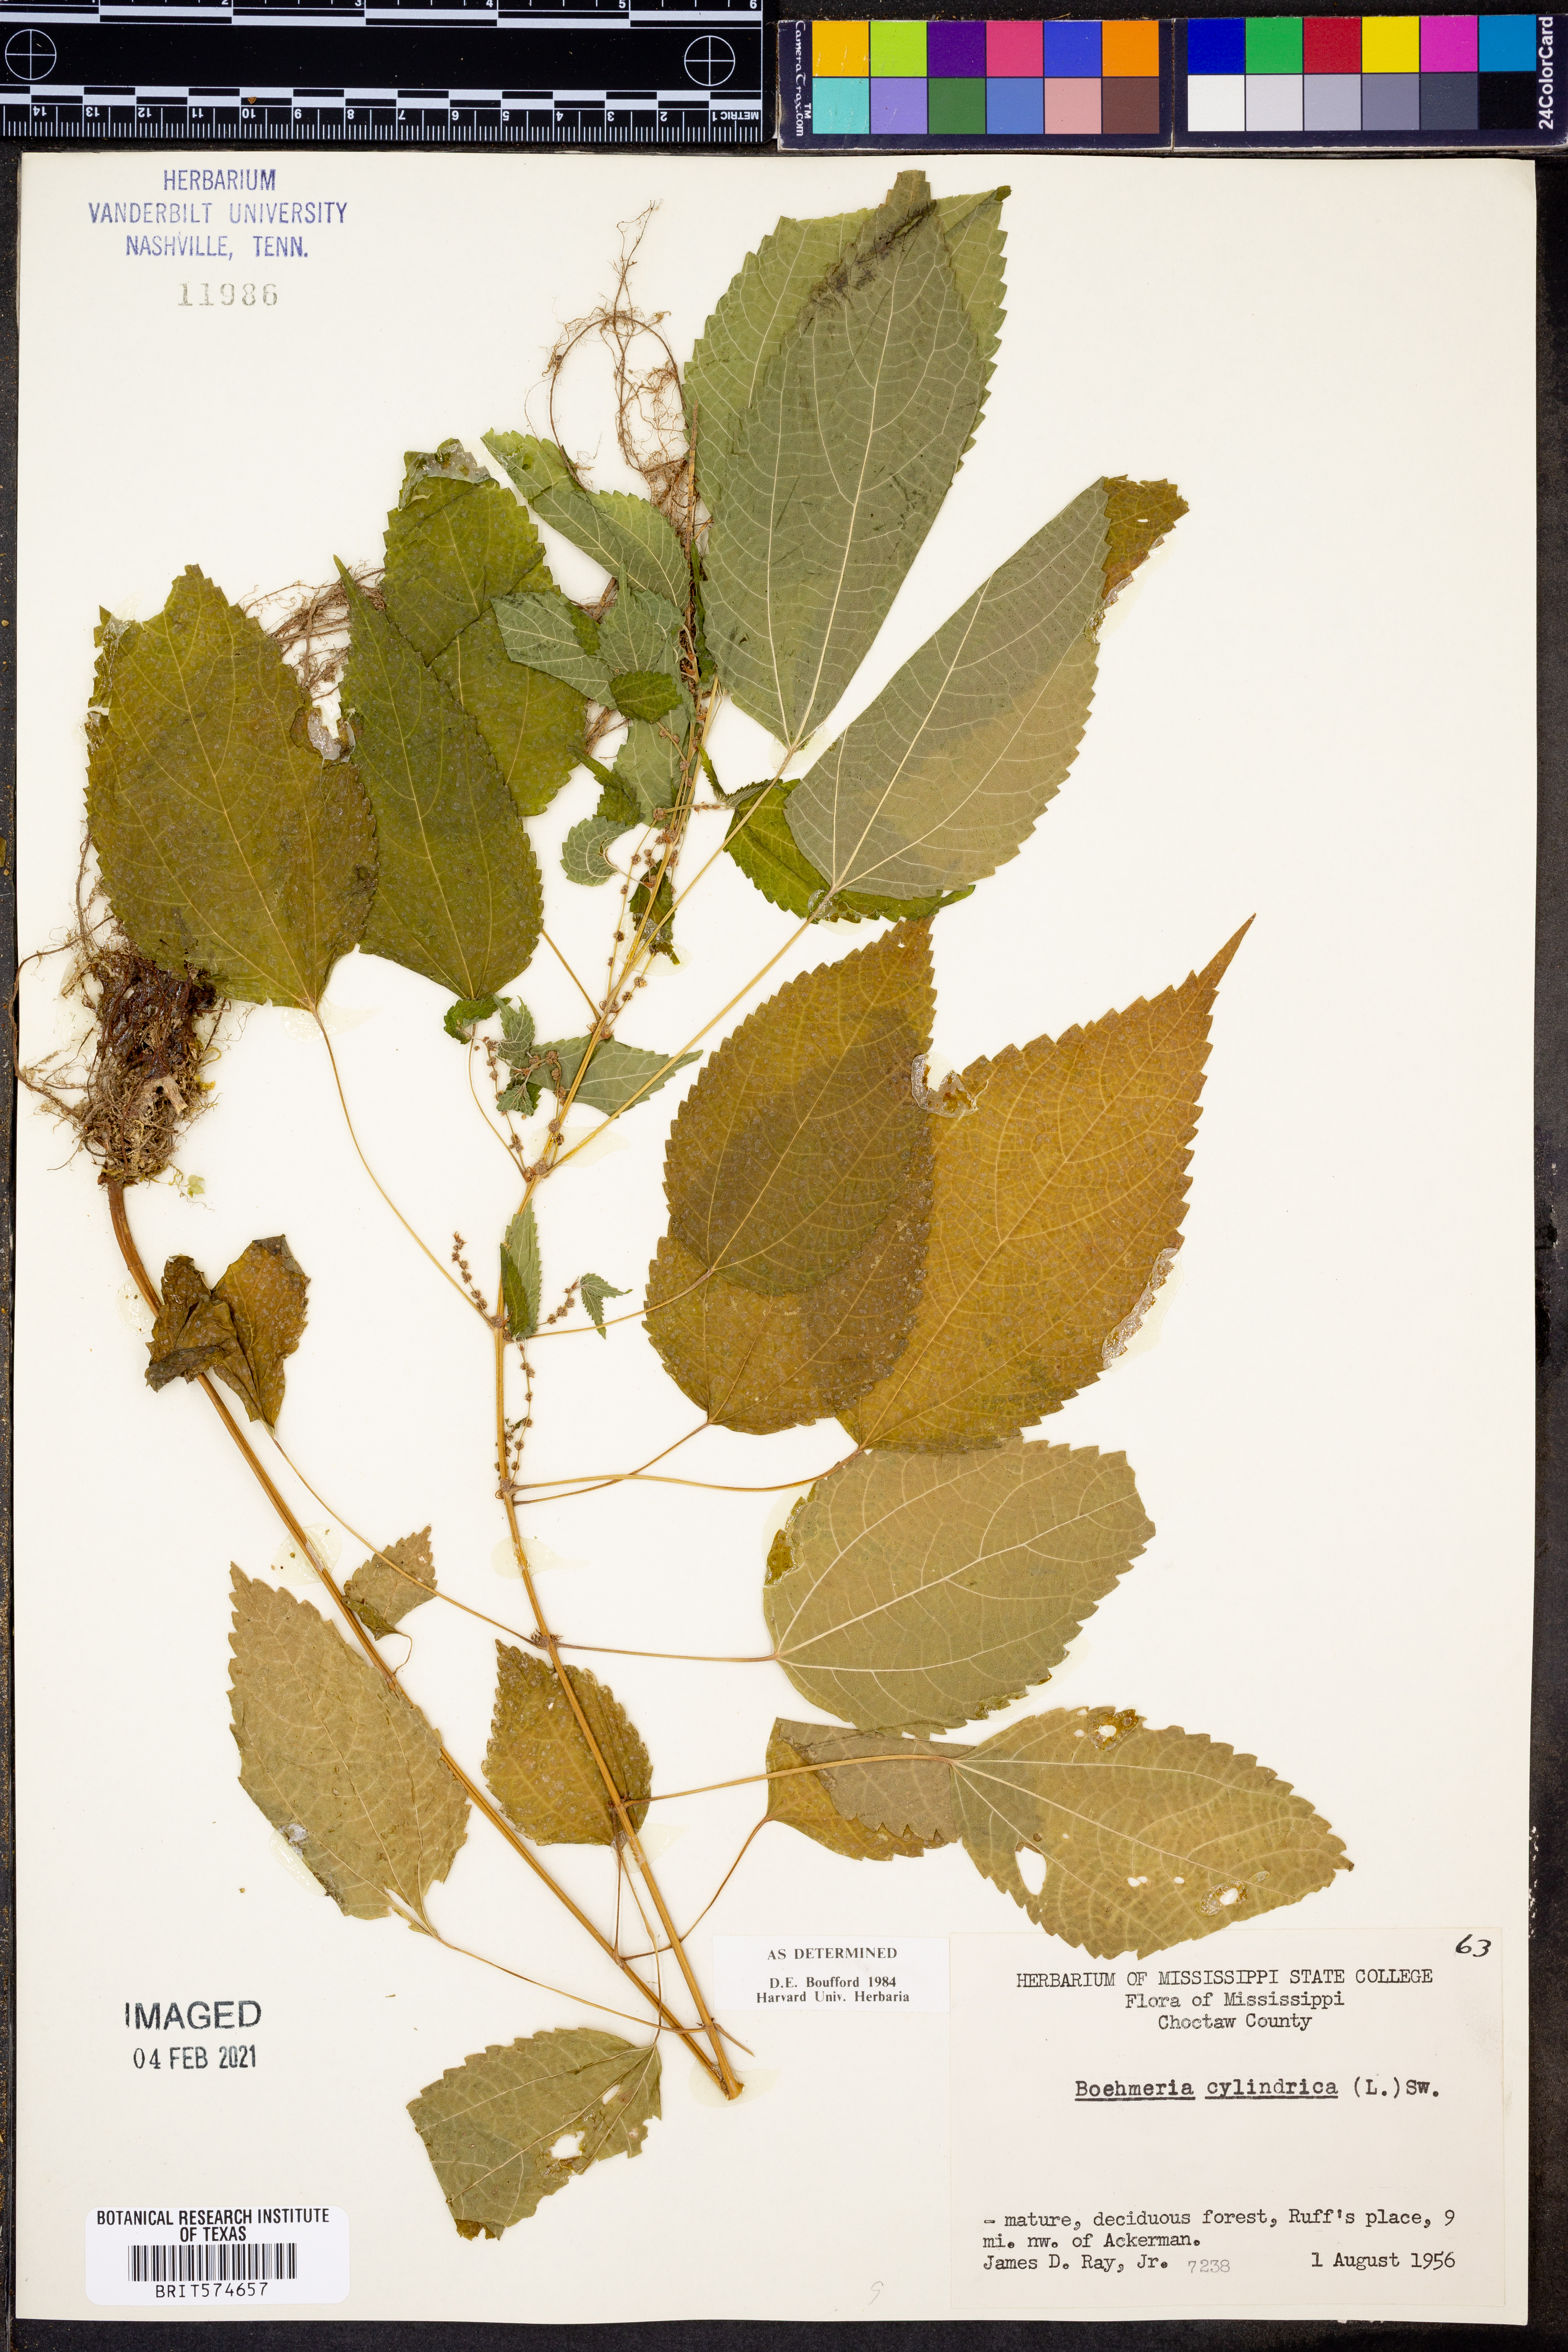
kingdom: Plantae
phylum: Tracheophyta
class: Magnoliopsida
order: Rosales
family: Urticaceae
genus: Boehmeria
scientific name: Boehmeria cylindrica
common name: Bog-hemp
